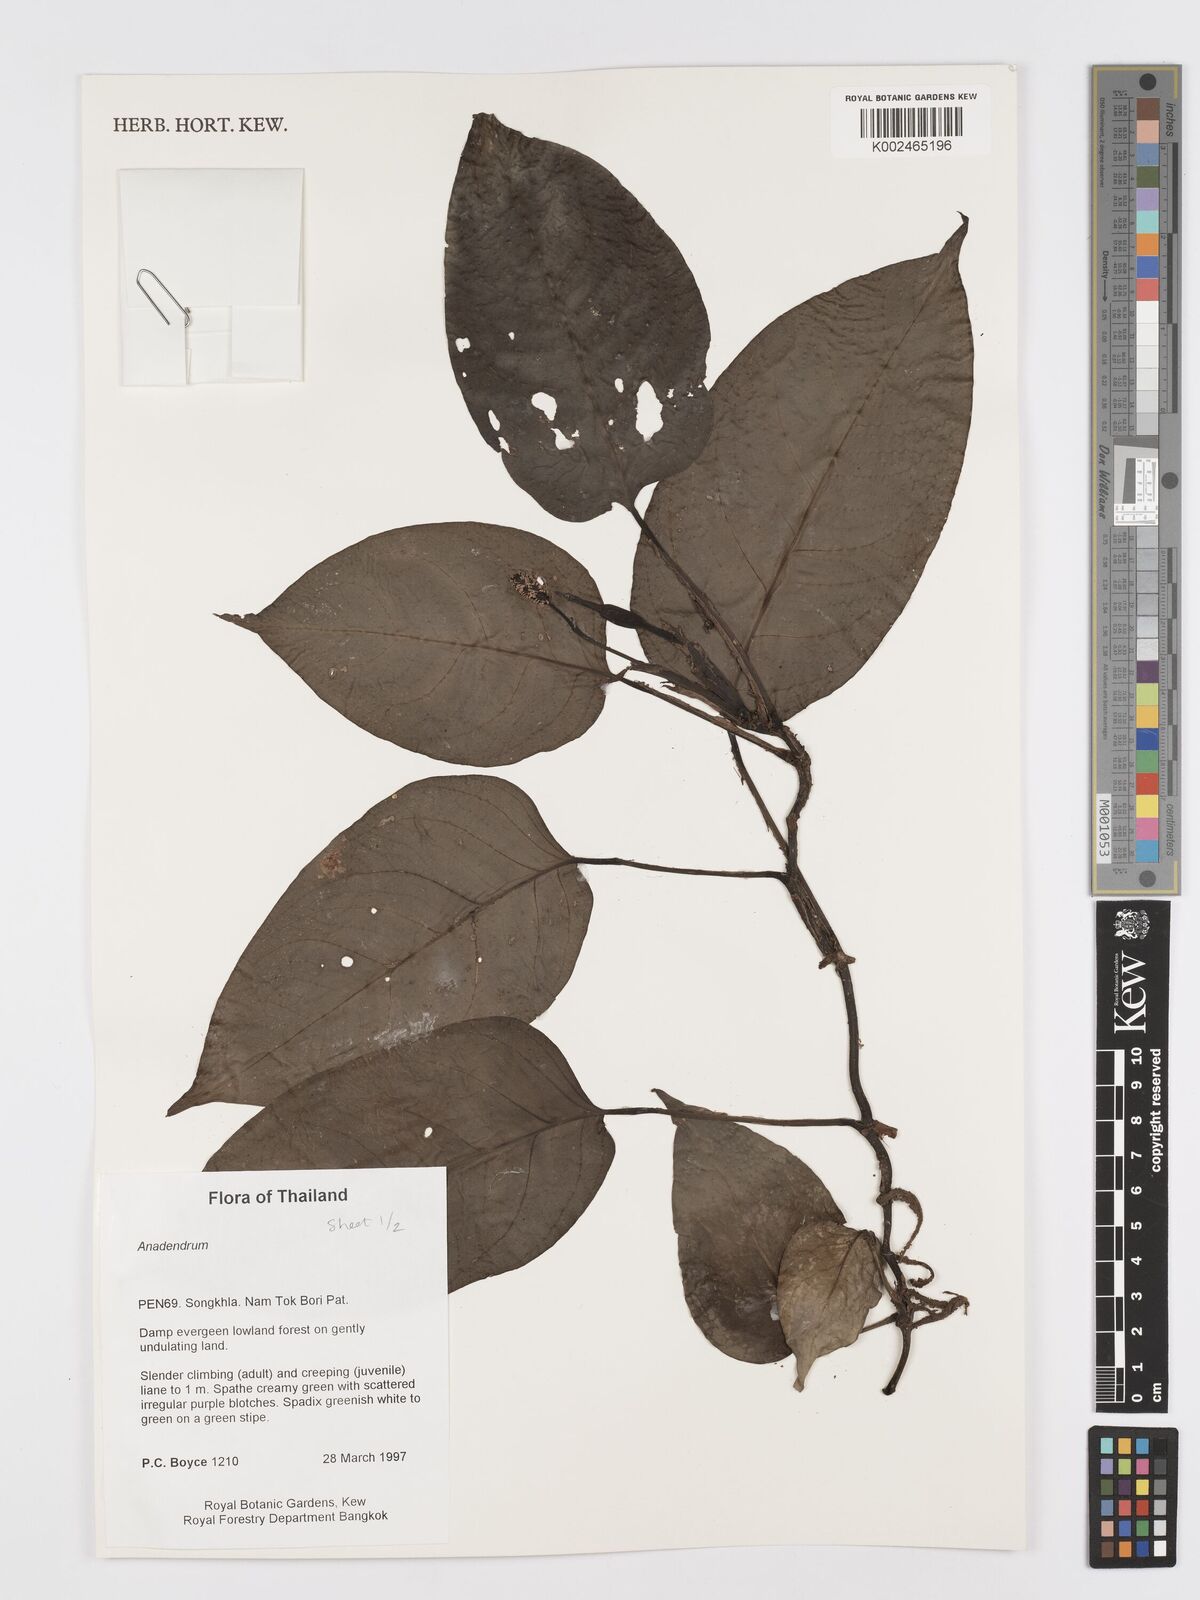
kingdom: Plantae
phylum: Tracheophyta
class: Liliopsida
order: Alismatales
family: Araceae
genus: Anadendrum
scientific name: Anadendrum
